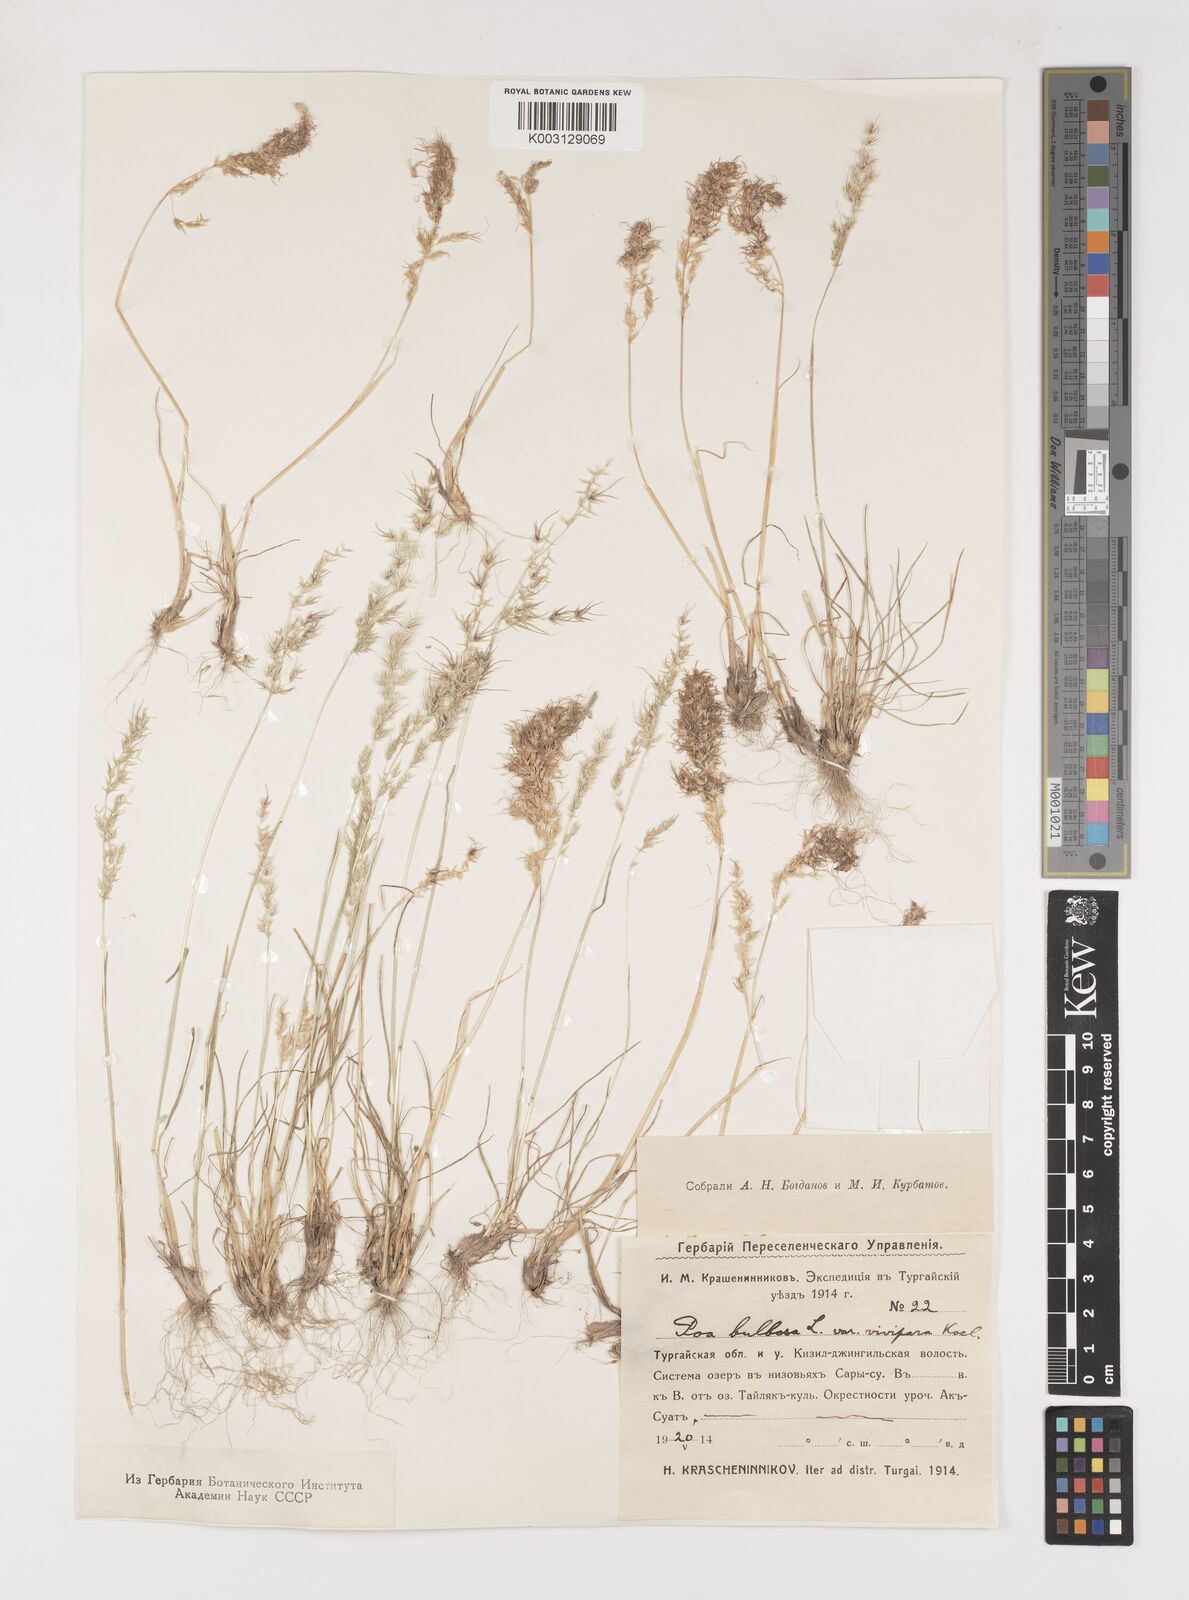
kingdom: Plantae
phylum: Tracheophyta
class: Liliopsida
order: Poales
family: Poaceae
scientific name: Poaceae
